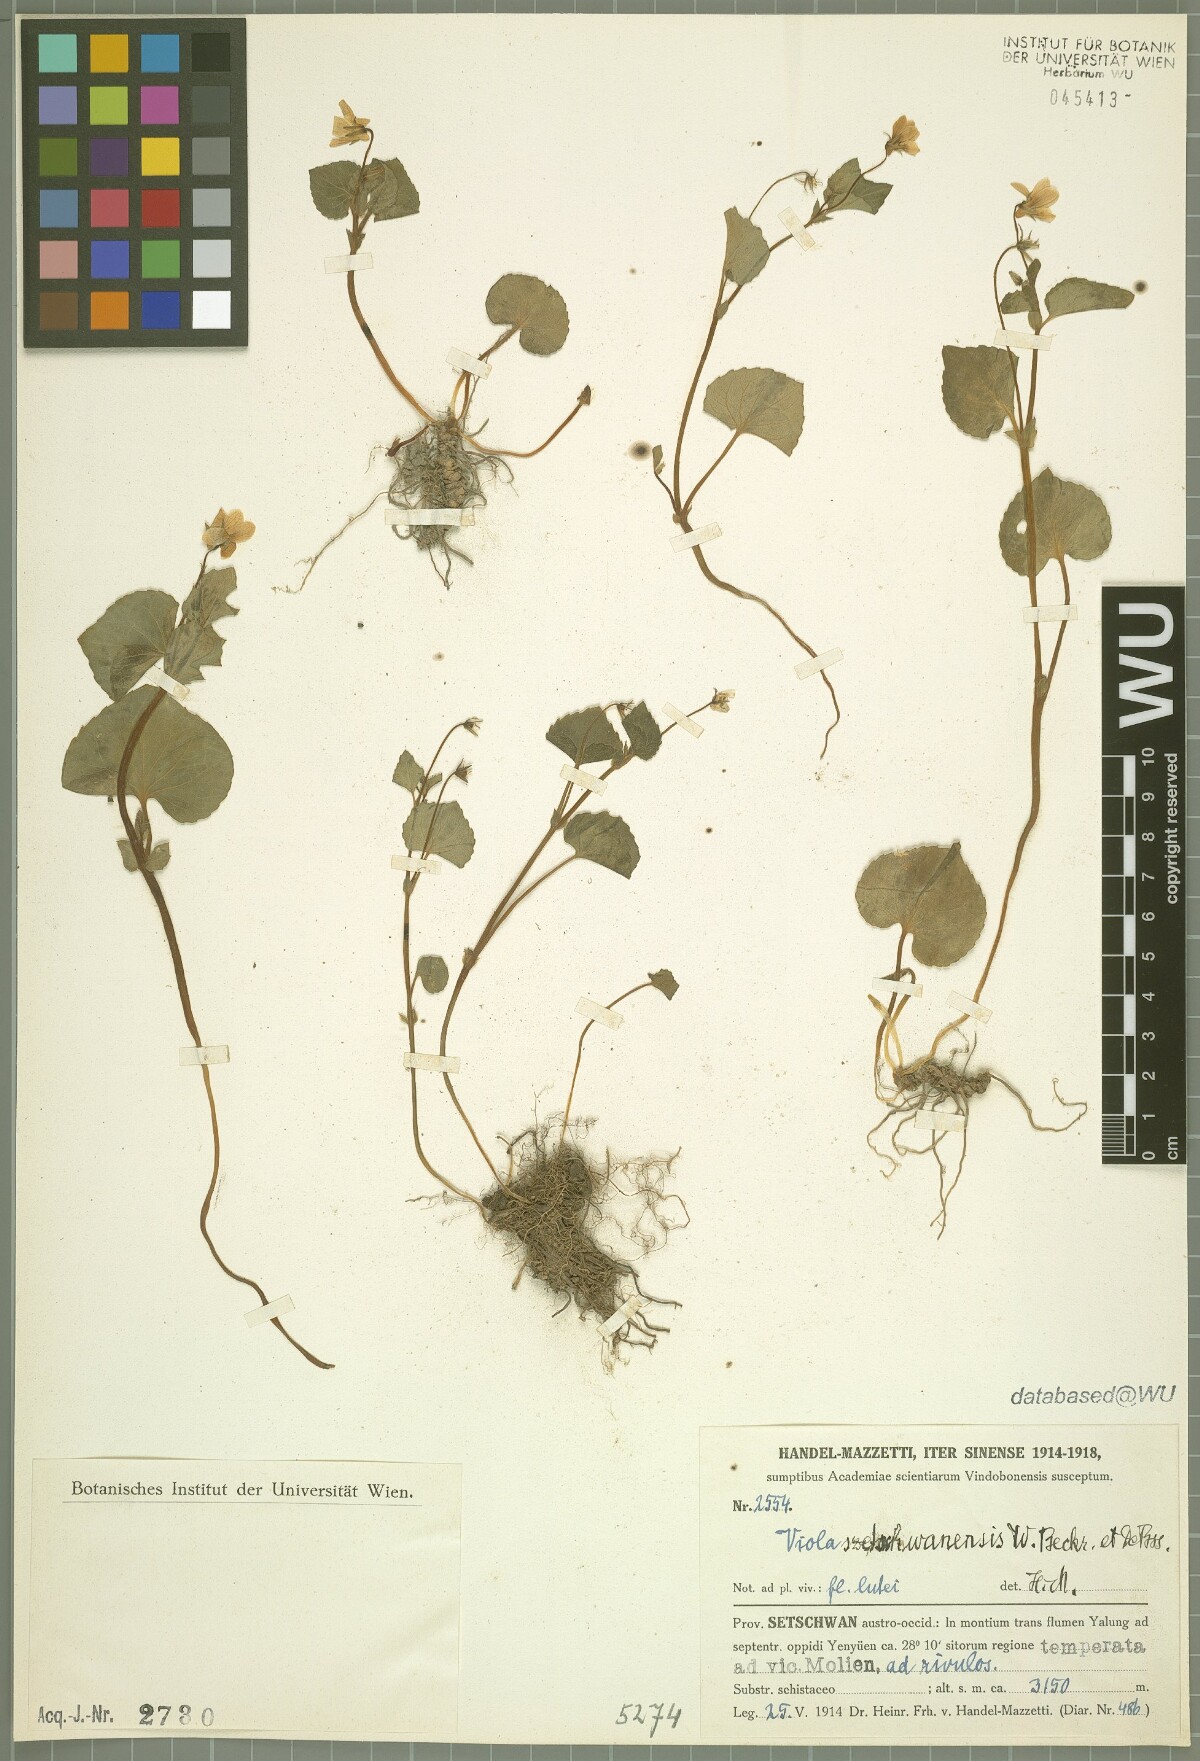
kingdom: Plantae
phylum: Tracheophyta
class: Magnoliopsida
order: Malpighiales
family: Violaceae
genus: Viola
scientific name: Viola szetschwanensis
